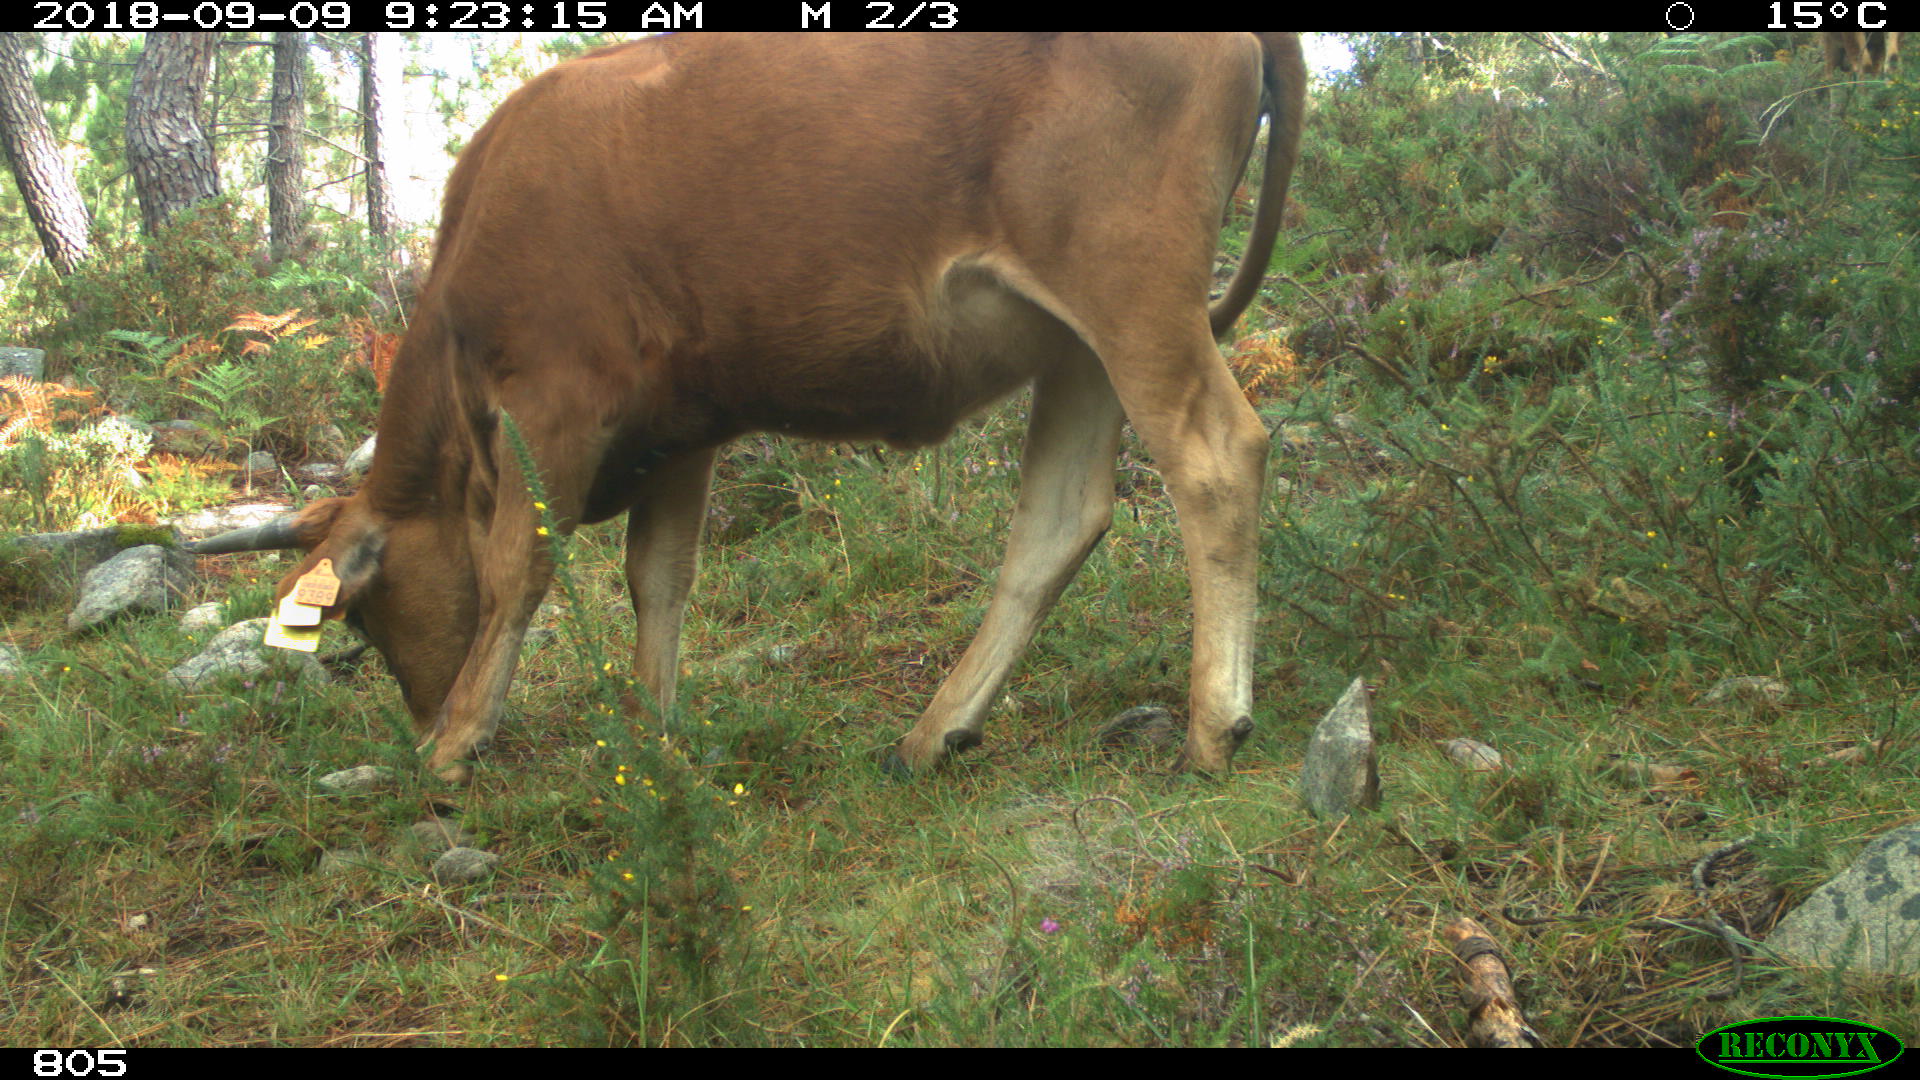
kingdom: Animalia
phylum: Chordata
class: Mammalia
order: Artiodactyla
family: Bovidae
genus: Bos
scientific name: Bos taurus
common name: Domesticated cattle
